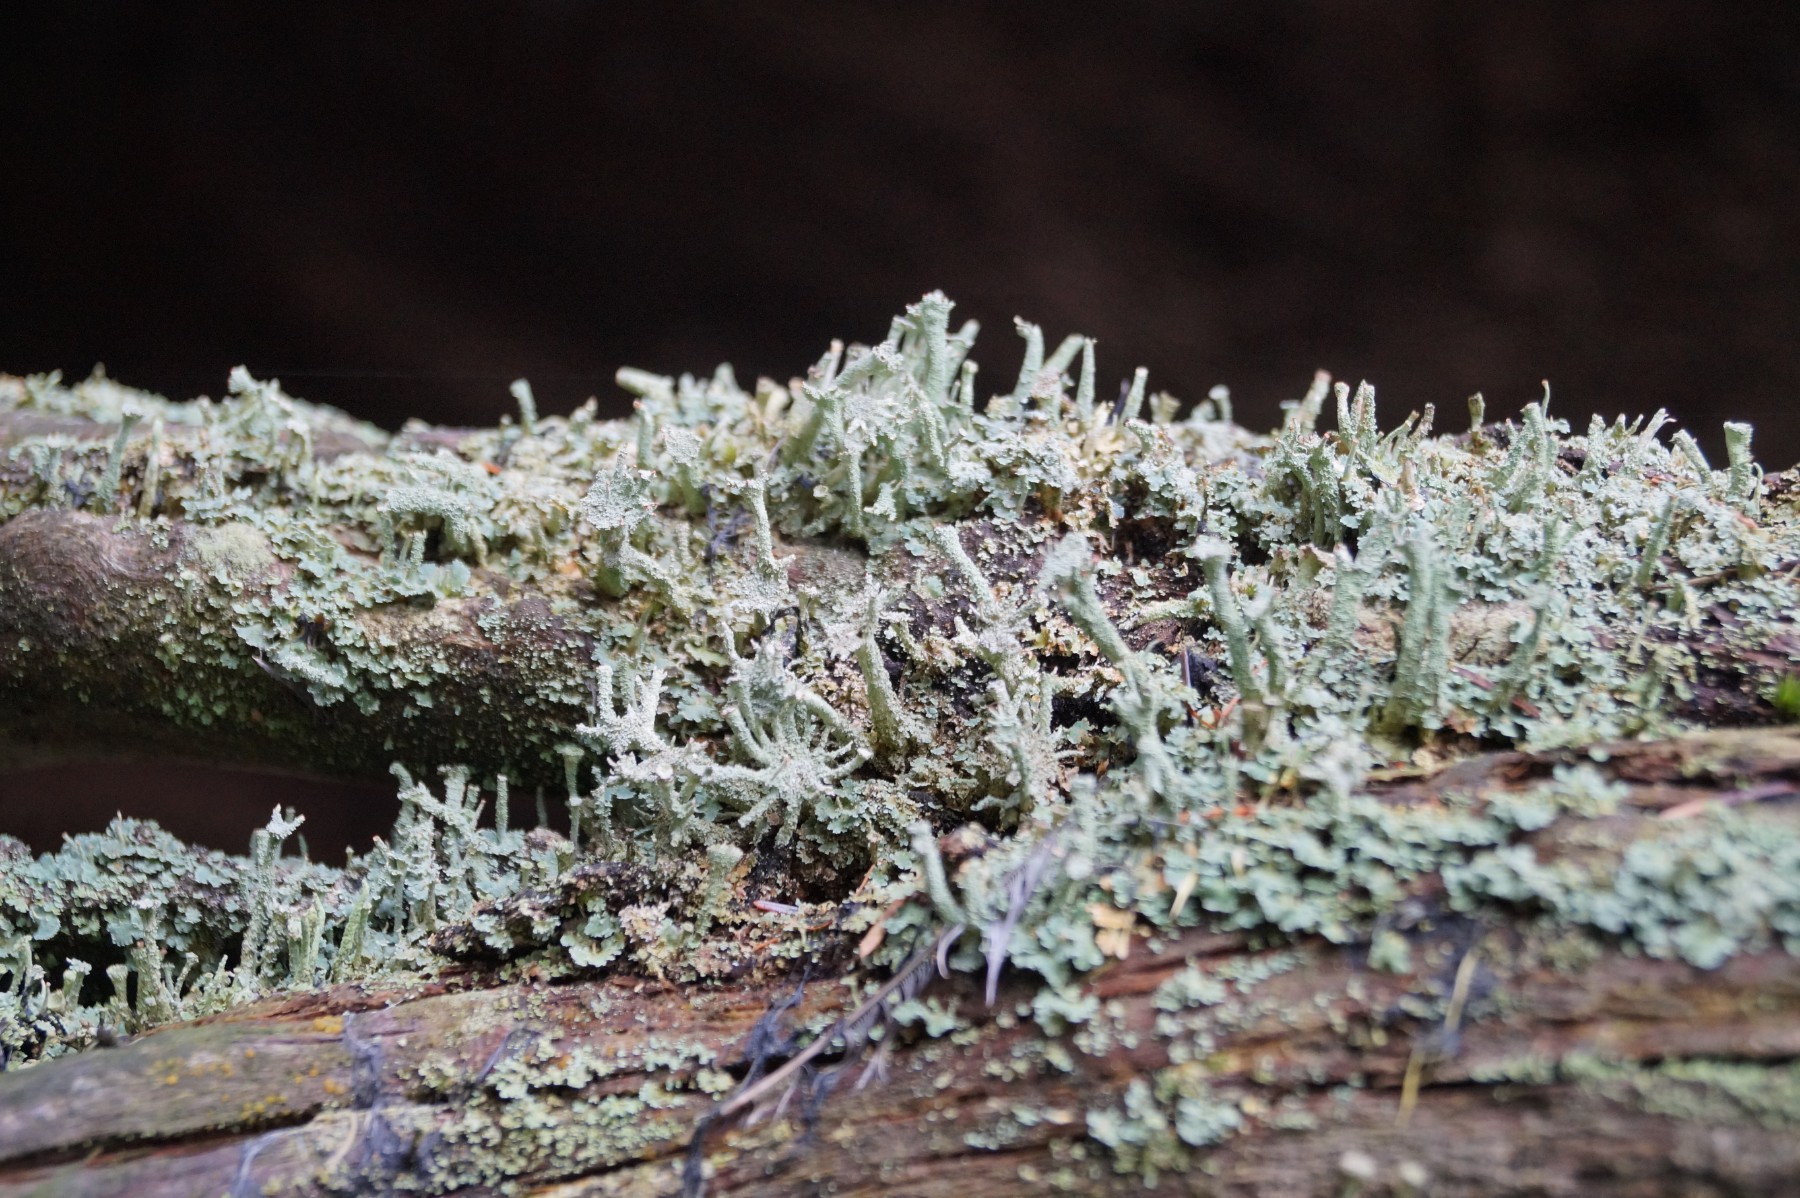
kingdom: Fungi
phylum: Ascomycota
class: Lecanoromycetes
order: Lecanorales
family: Cladoniaceae
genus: Cladonia
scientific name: Cladonia polydactyla
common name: vifte-bægerlav
